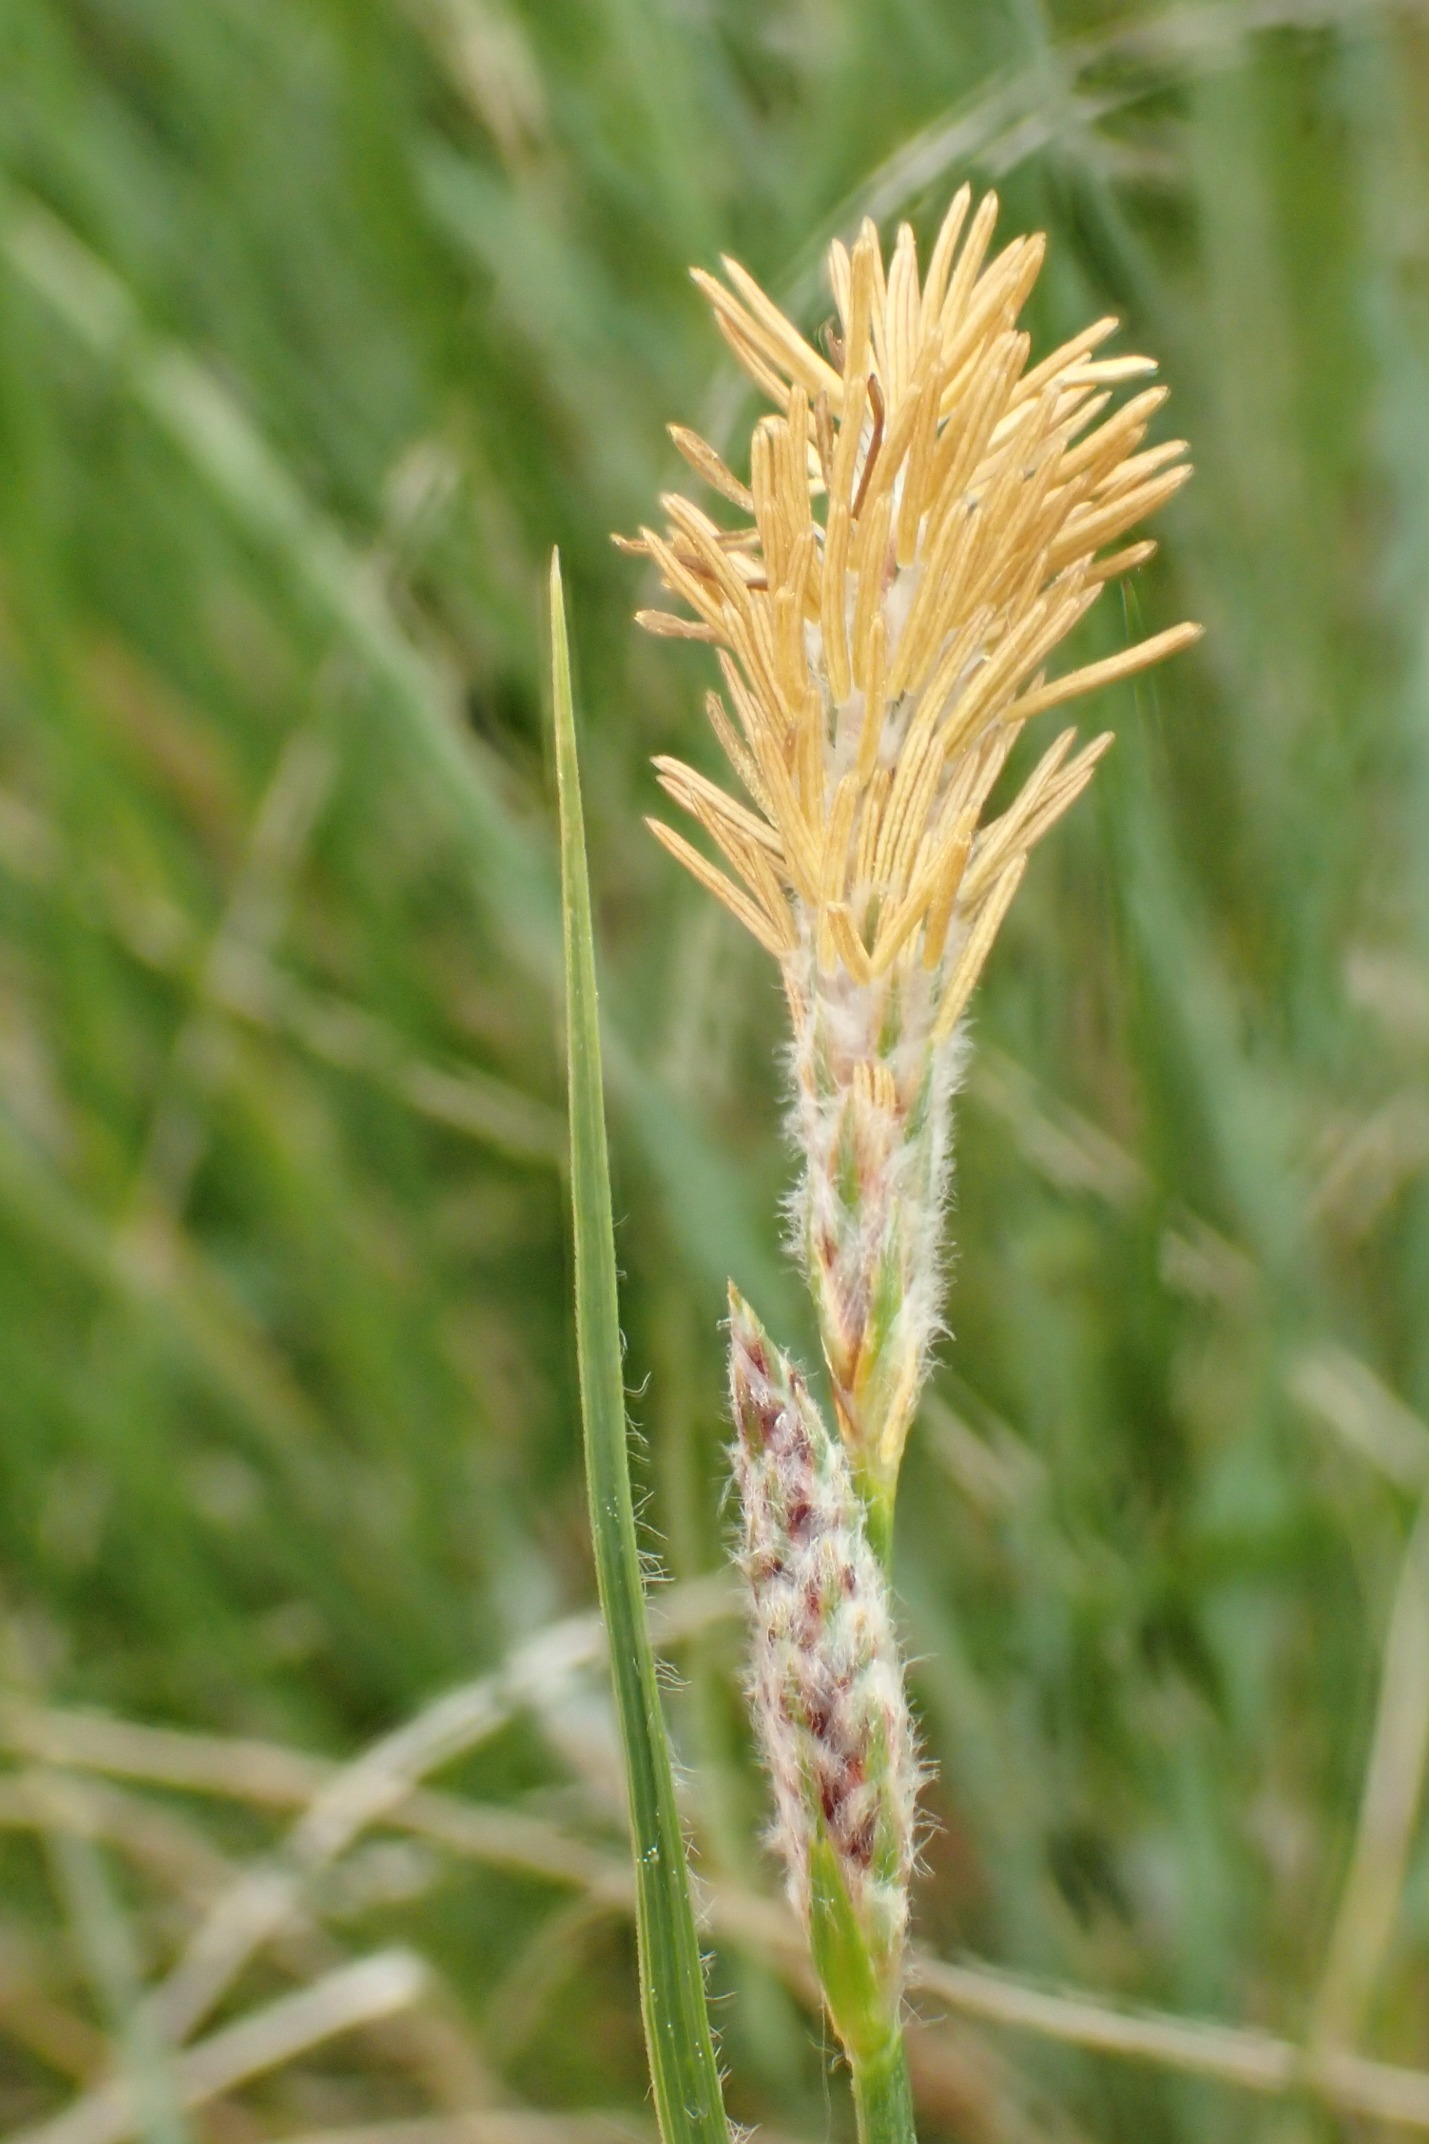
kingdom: Plantae
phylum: Tracheophyta
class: Liliopsida
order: Poales
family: Cyperaceae
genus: Carex
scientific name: Carex hirta
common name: Håret star
